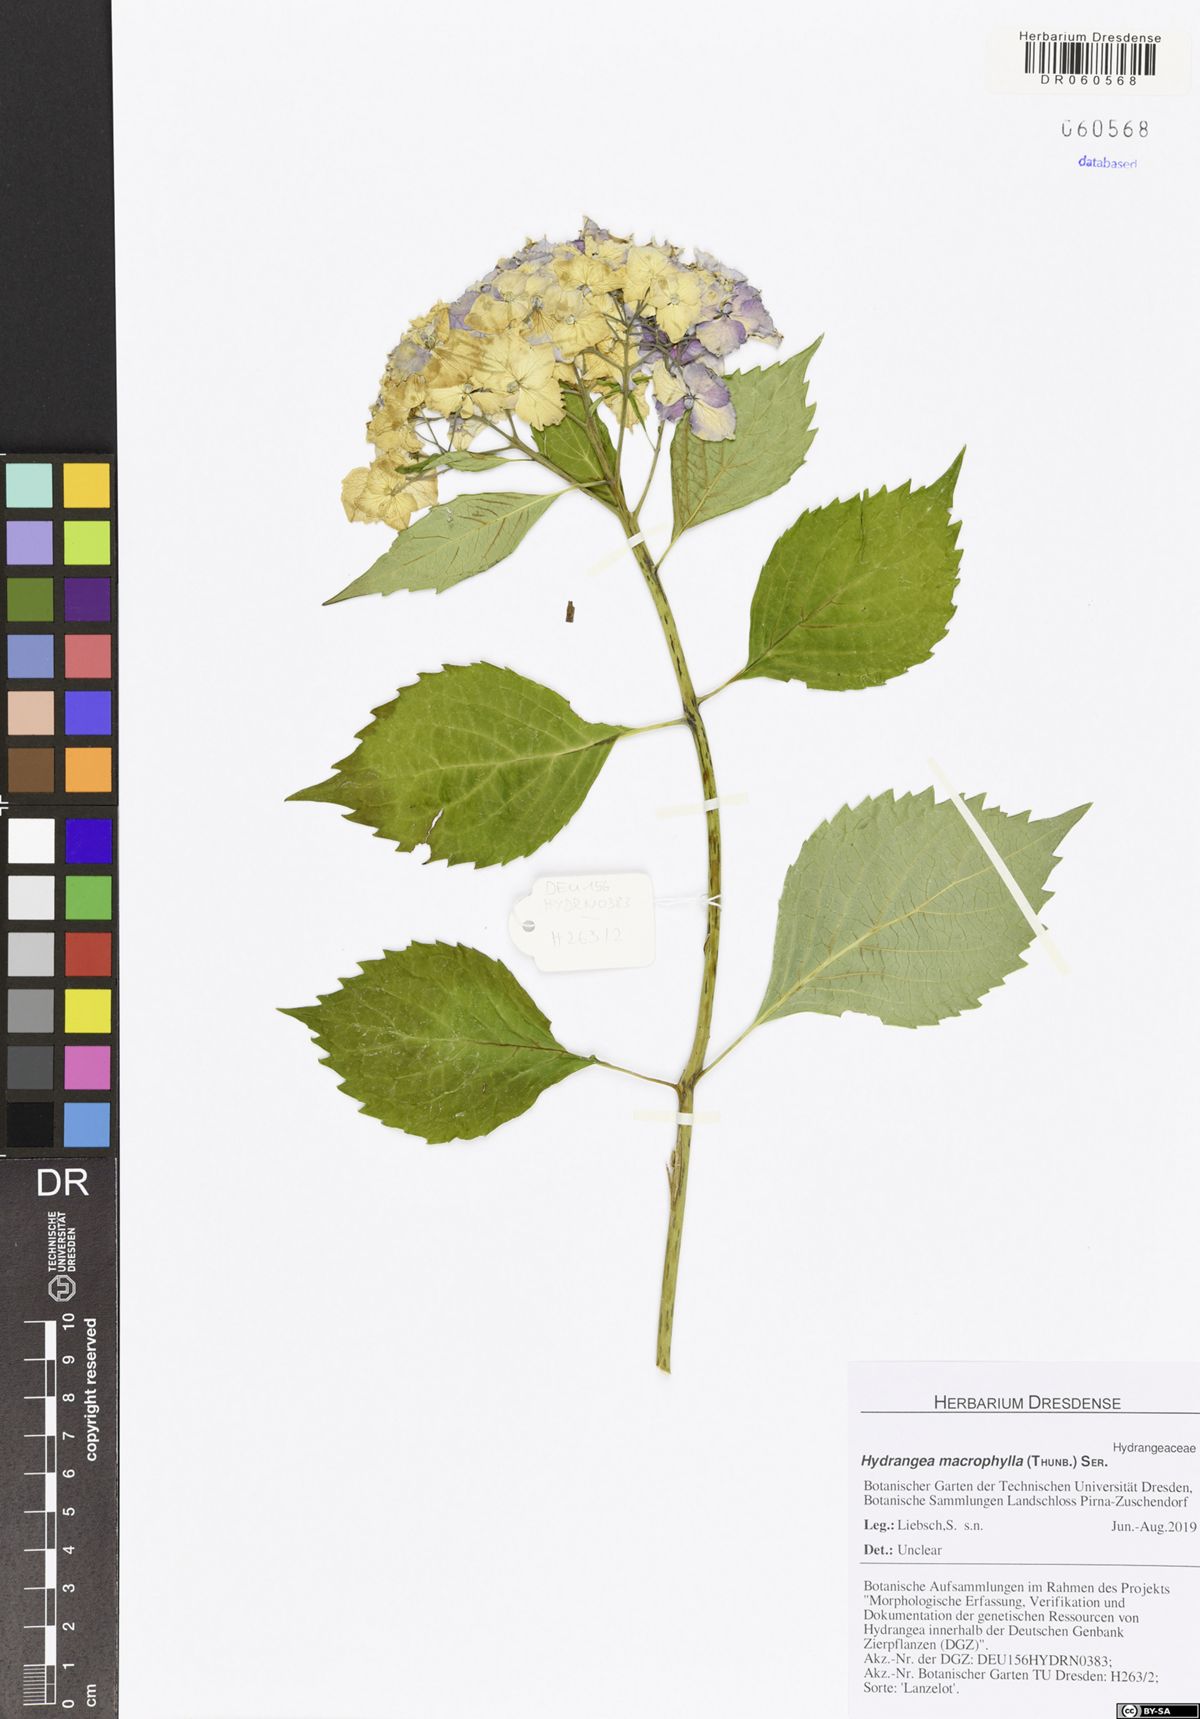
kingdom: Plantae
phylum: Tracheophyta
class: Magnoliopsida
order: Cornales
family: Hydrangeaceae
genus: Hydrangea
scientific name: Hydrangea macrophylla
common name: Hydrangea
